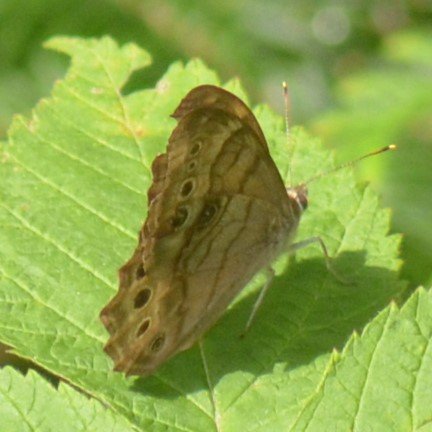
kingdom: Animalia
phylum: Arthropoda
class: Insecta
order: Lepidoptera
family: Nymphalidae
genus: Lethe
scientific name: Lethe anthedon
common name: Northern Pearly-Eye
